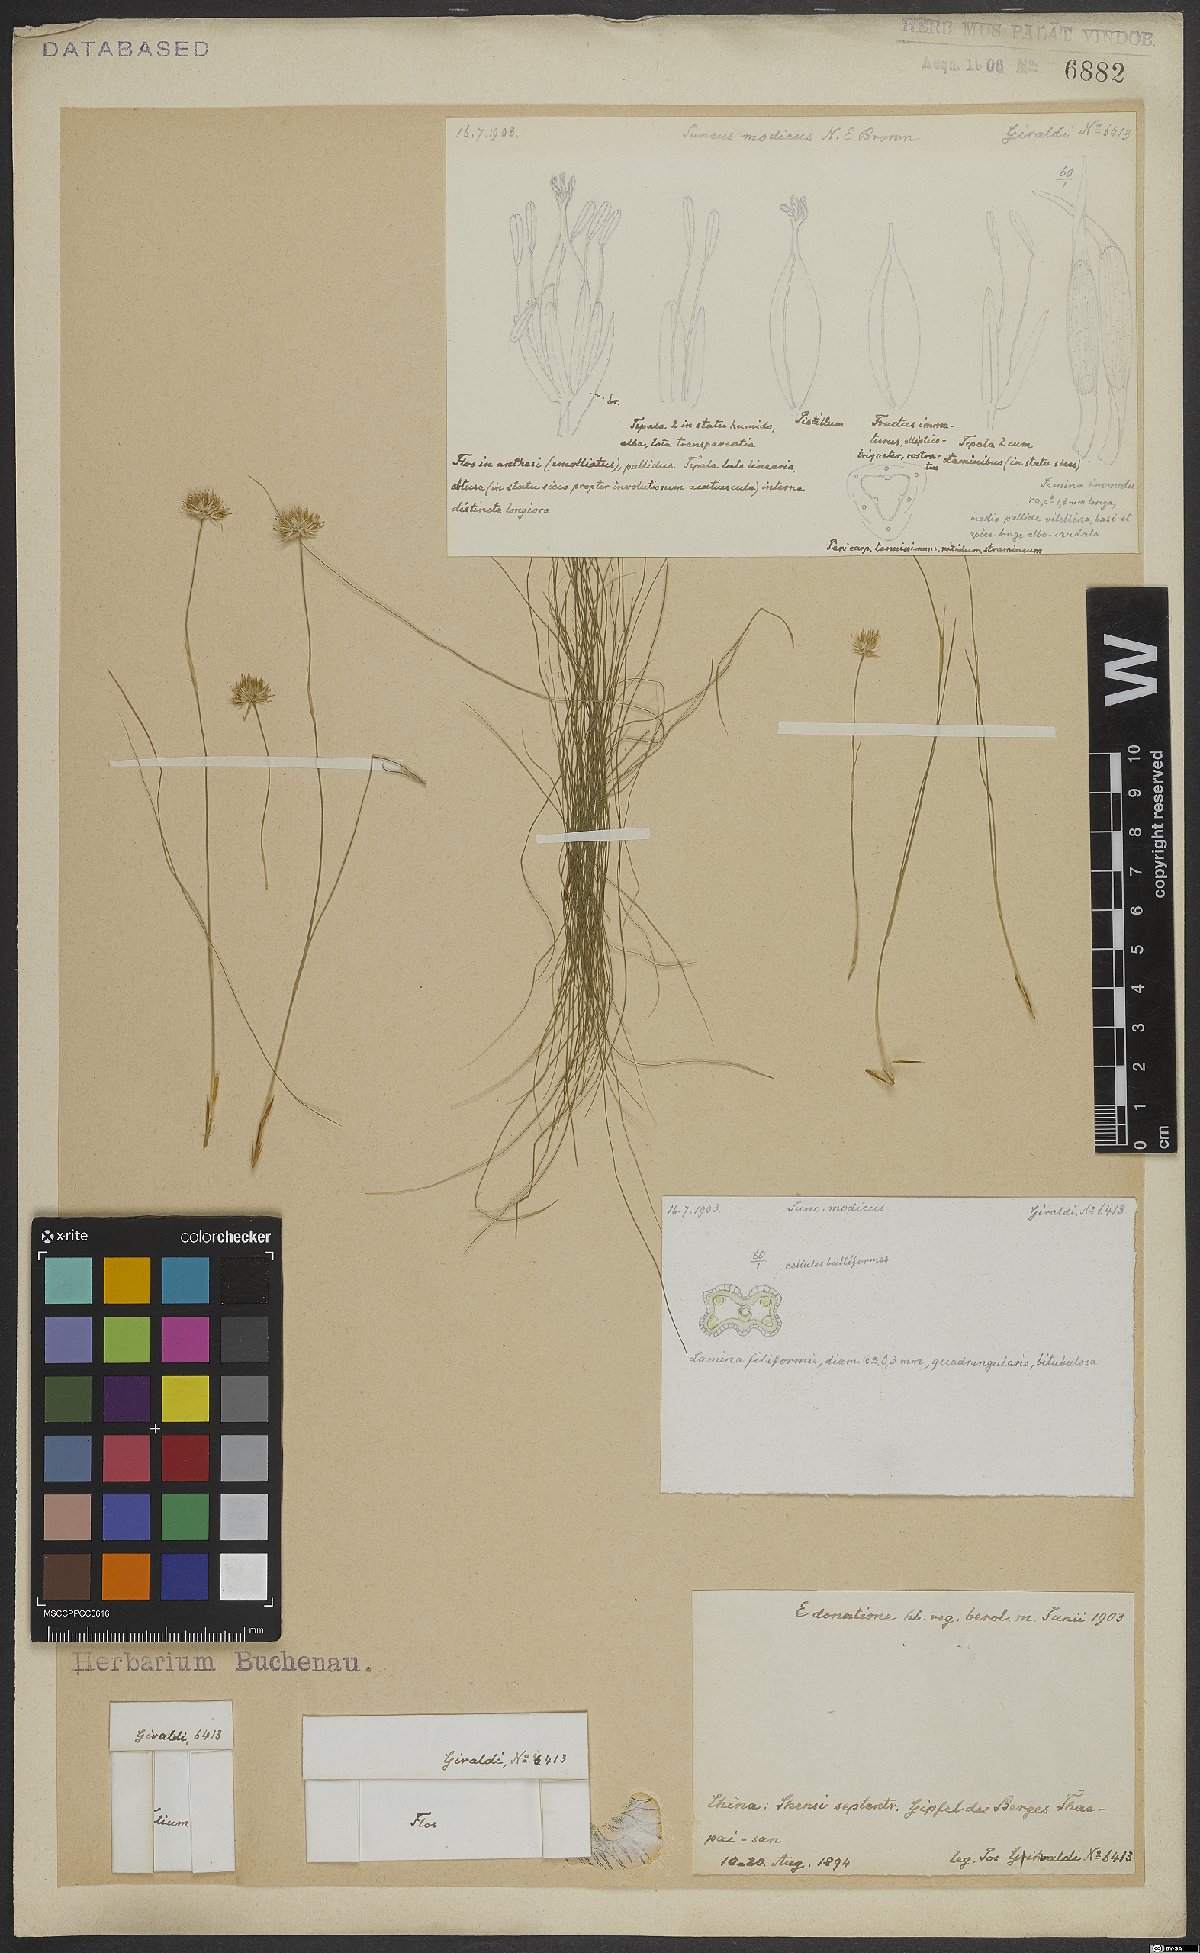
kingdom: Plantae
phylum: Tracheophyta
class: Liliopsida
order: Poales
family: Juncaceae
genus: Juncus
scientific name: Juncus modicus
